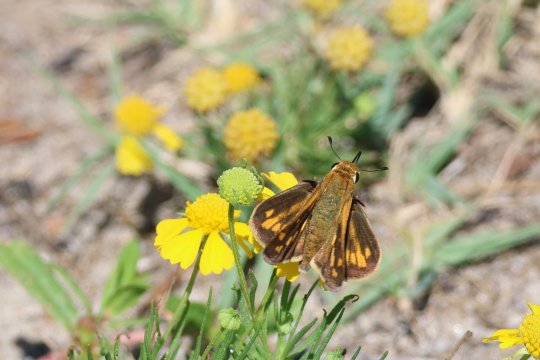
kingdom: Animalia
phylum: Arthropoda
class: Insecta
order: Lepidoptera
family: Hesperiidae
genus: Hylephila
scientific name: Hylephila phyleus
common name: Fiery Skipper
